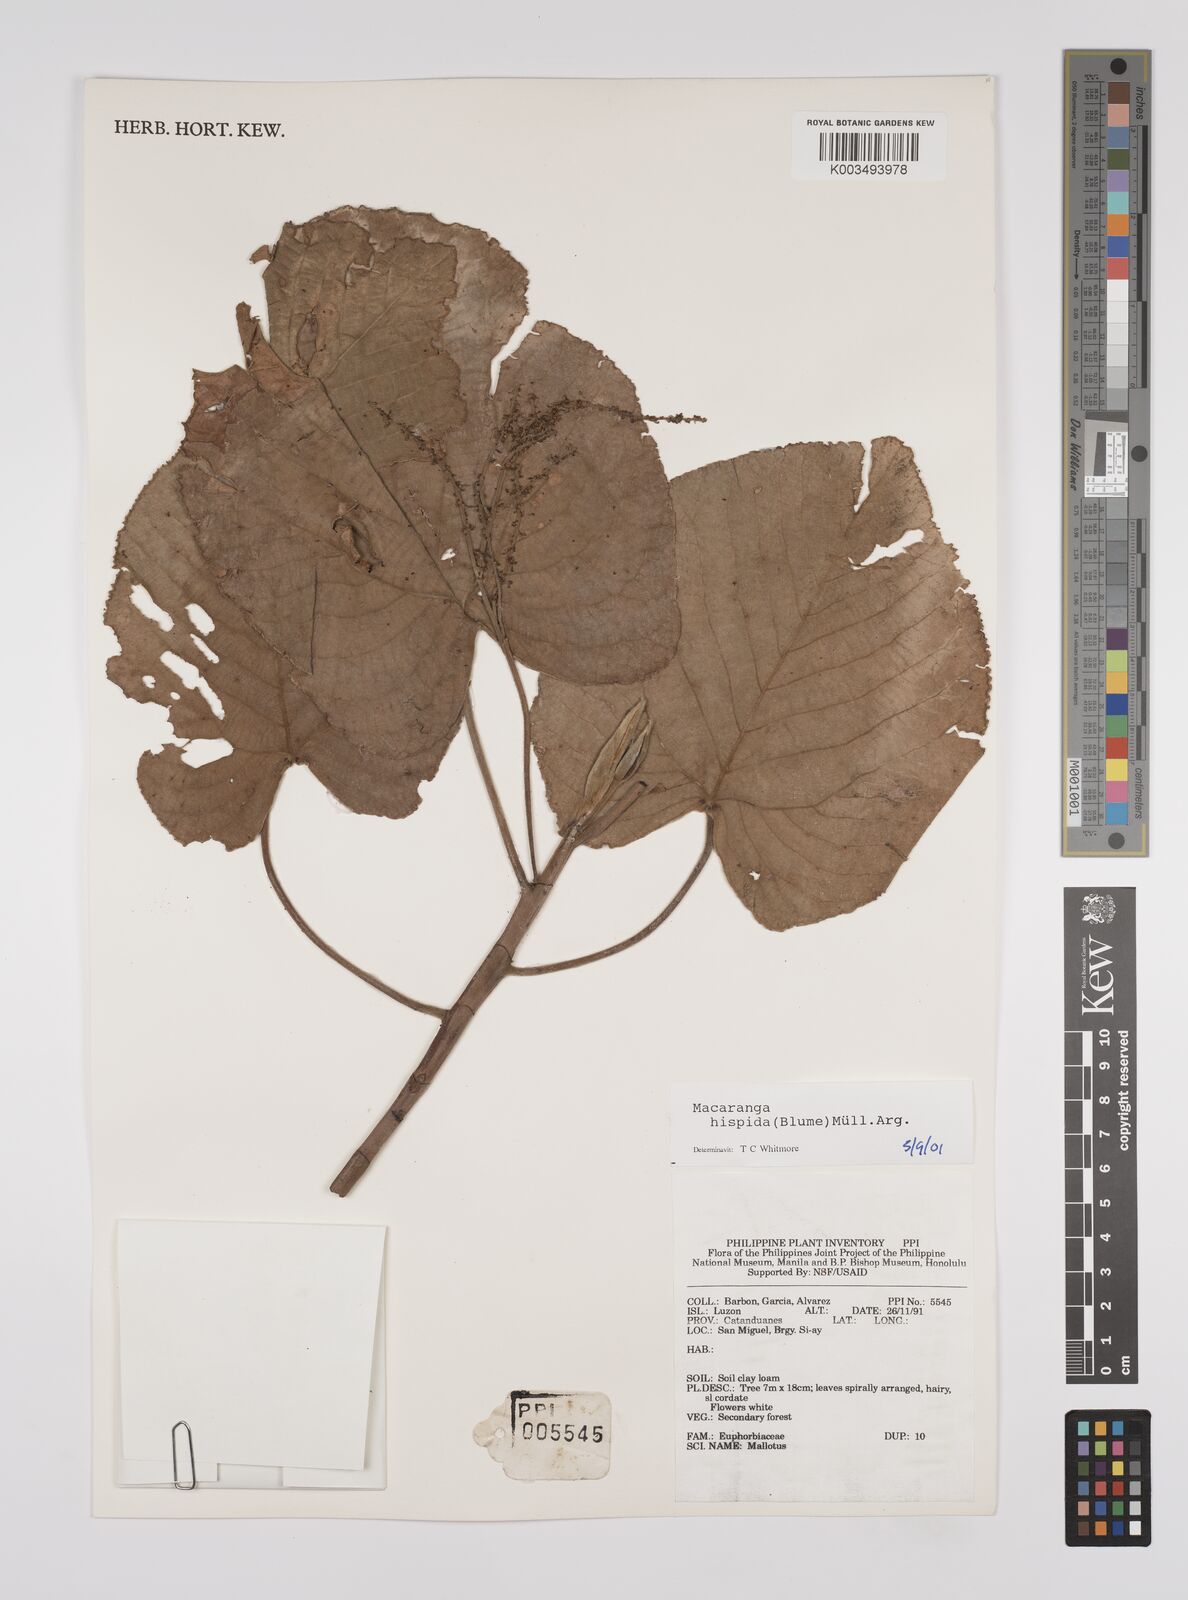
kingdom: Plantae
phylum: Tracheophyta
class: Magnoliopsida
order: Malpighiales
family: Euphorbiaceae
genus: Macaranga
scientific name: Macaranga hispida
